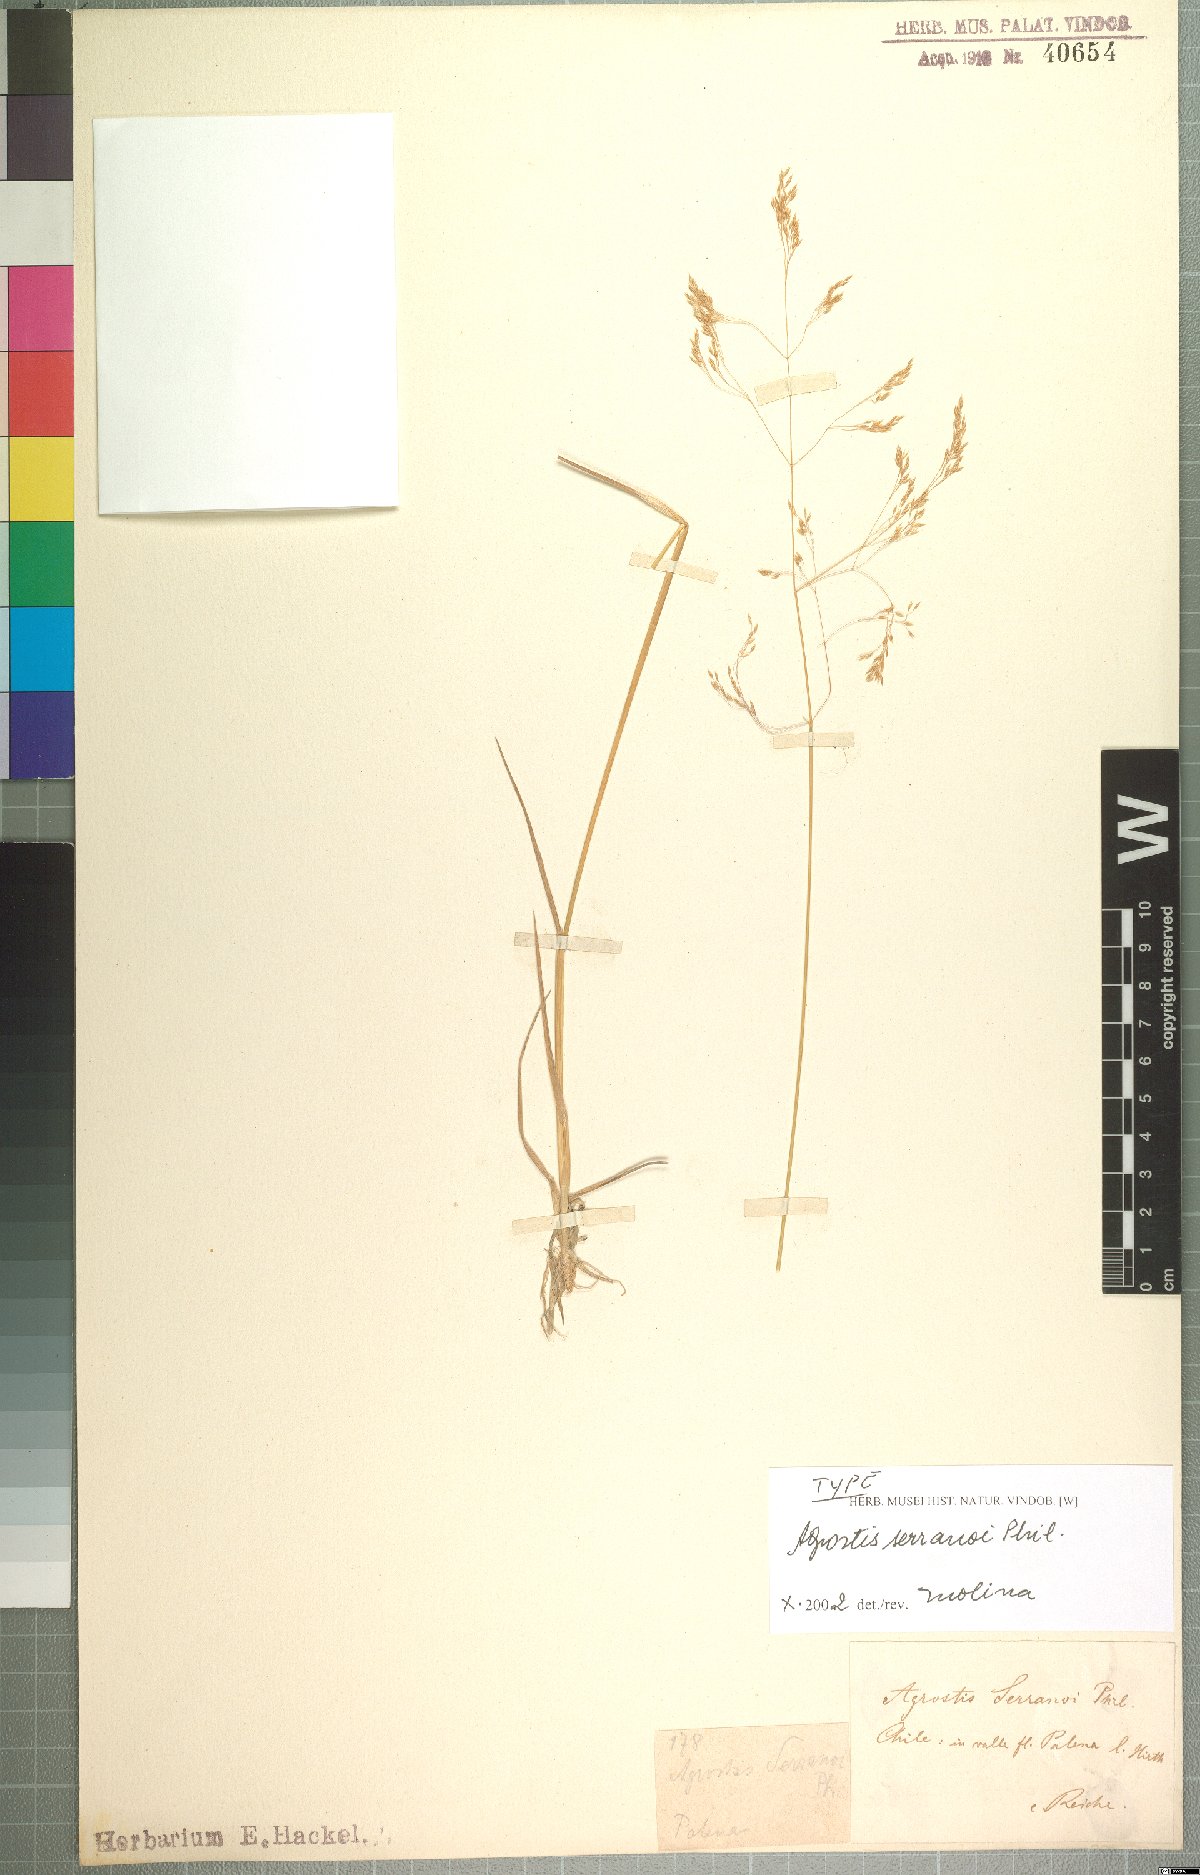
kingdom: Plantae
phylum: Tracheophyta
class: Liliopsida
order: Poales
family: Poaceae
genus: Agrostis
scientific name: Agrostis serranoi
